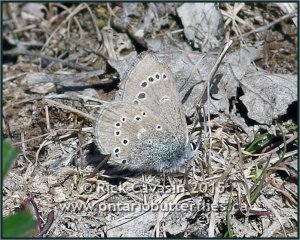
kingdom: Animalia
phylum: Arthropoda
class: Insecta
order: Lepidoptera
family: Lycaenidae
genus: Glaucopsyche
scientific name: Glaucopsyche lygdamus
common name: Silvery Blue
